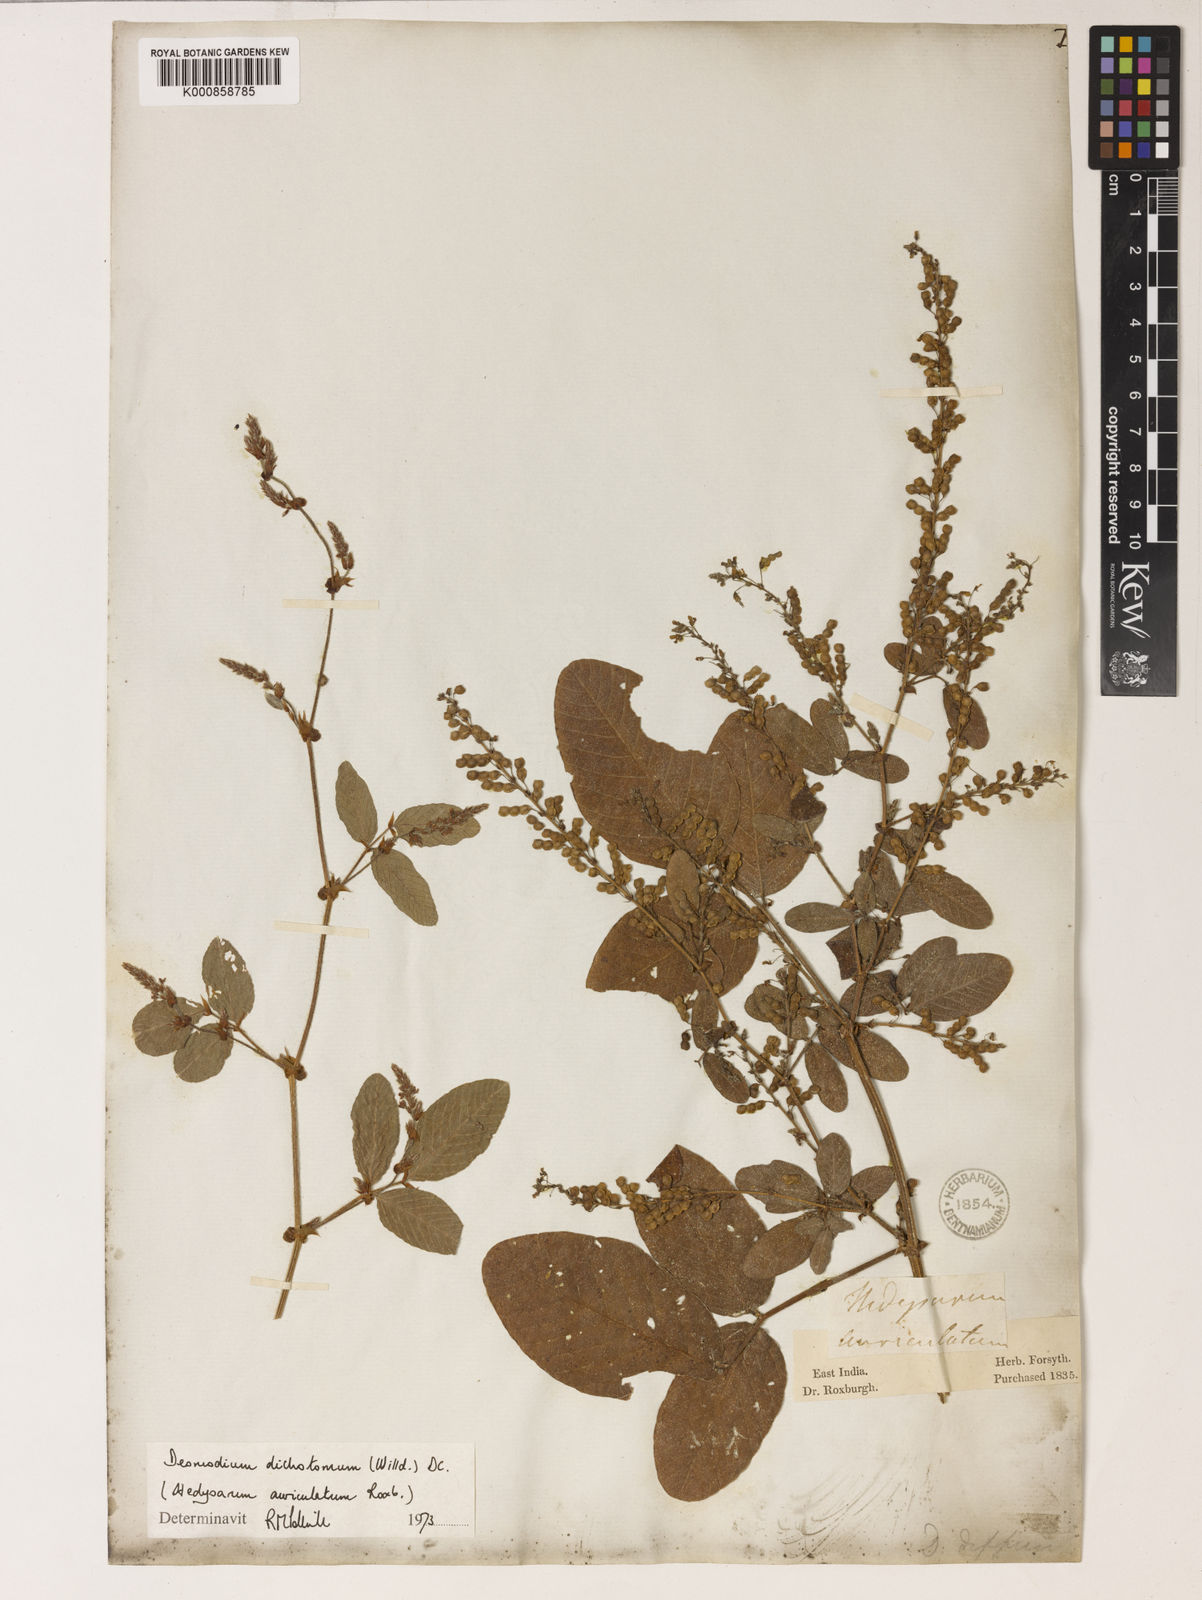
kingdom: Plantae
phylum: Tracheophyta
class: Magnoliopsida
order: Fabales
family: Fabaceae
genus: Bouffordia
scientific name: Bouffordia dichotoma
